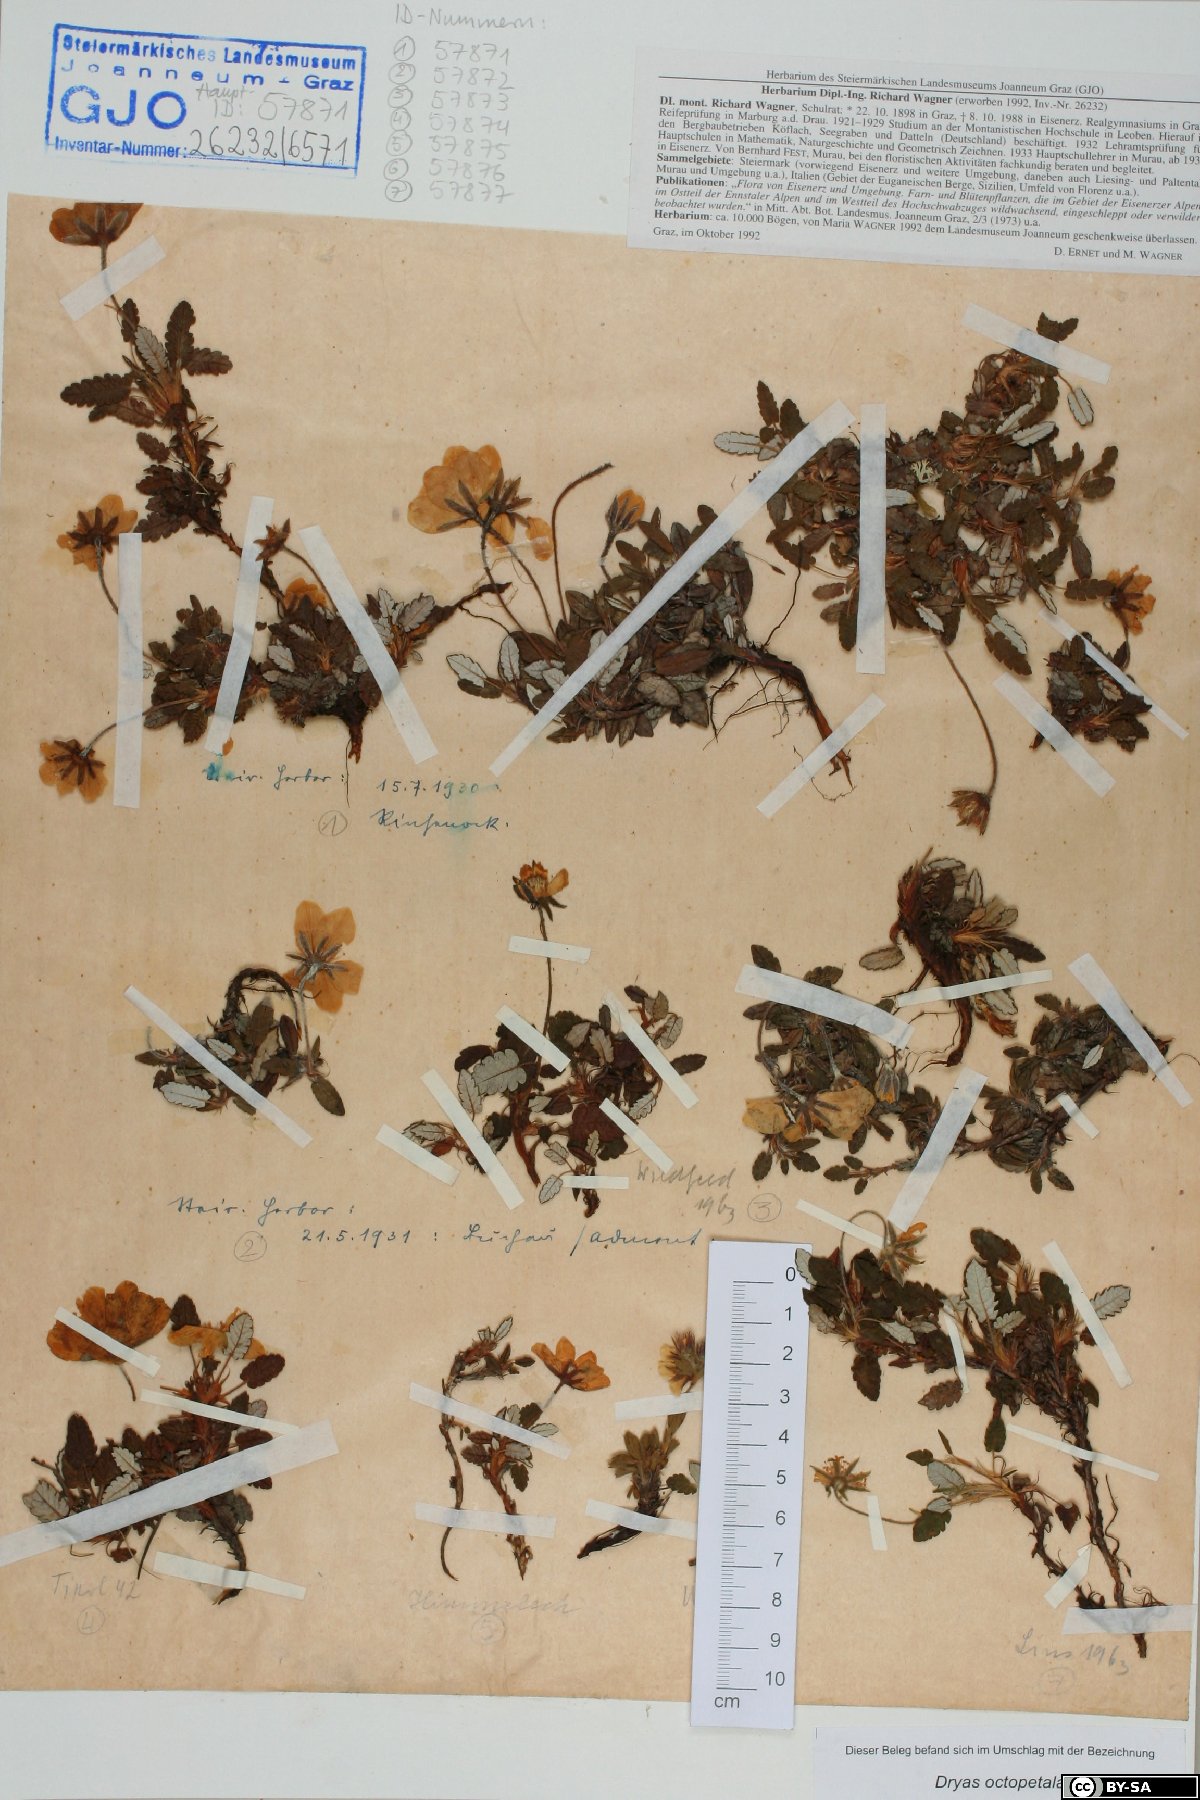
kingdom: Plantae
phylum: Tracheophyta
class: Magnoliopsida
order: Rosales
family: Rosaceae
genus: Dryas
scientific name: Dryas octopetala
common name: Eight-petal mountain-avens
